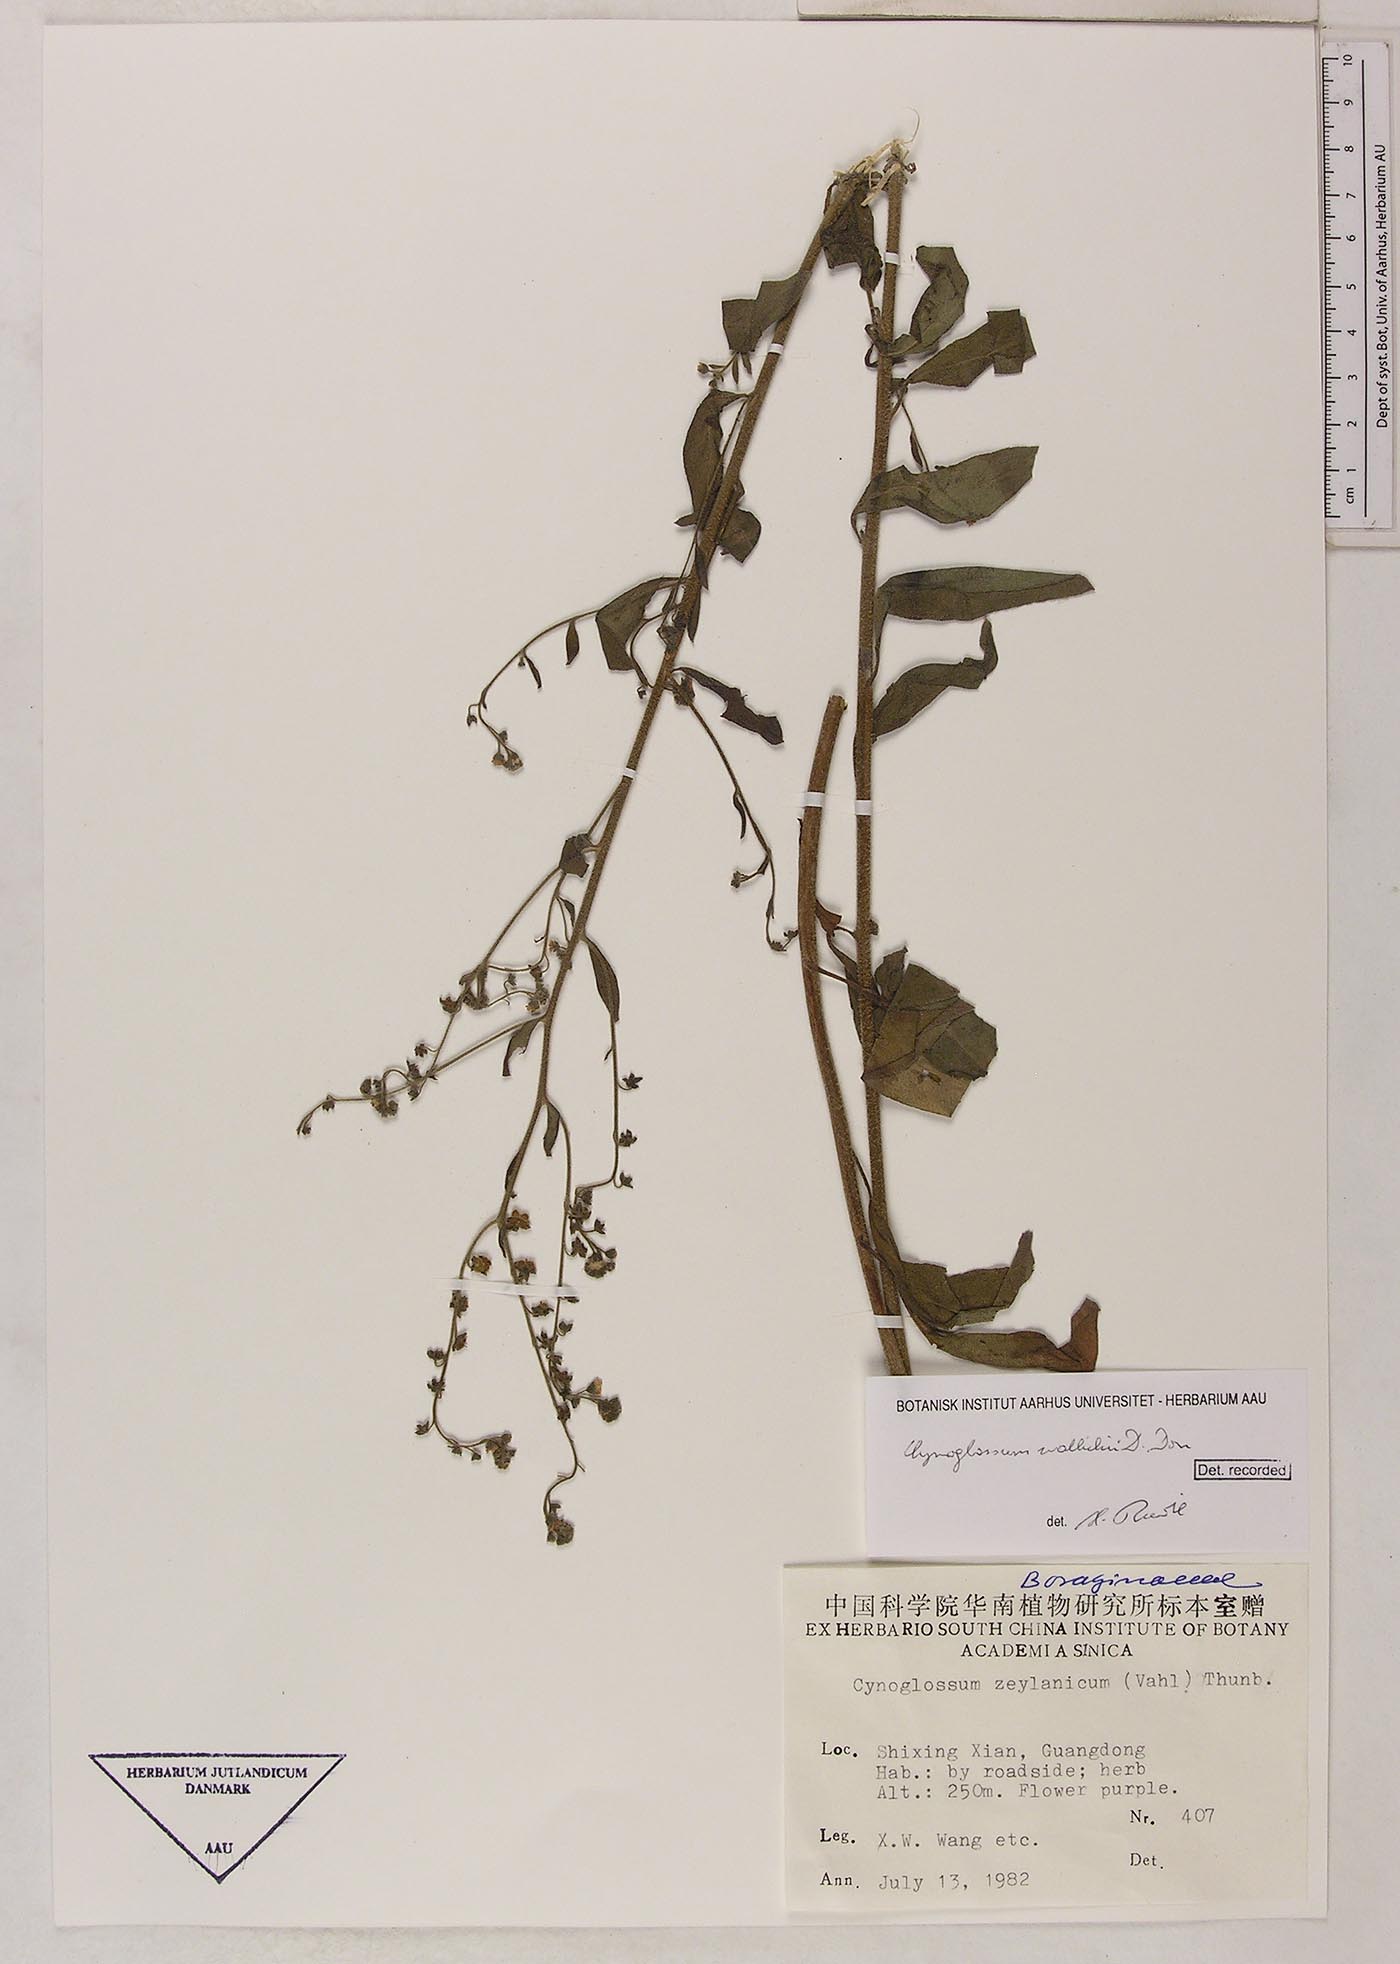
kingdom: Plantae
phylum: Tracheophyta
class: Magnoliopsida
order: Boraginales
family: Boraginaceae
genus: Rochelia
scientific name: Rochelia zeylanica
